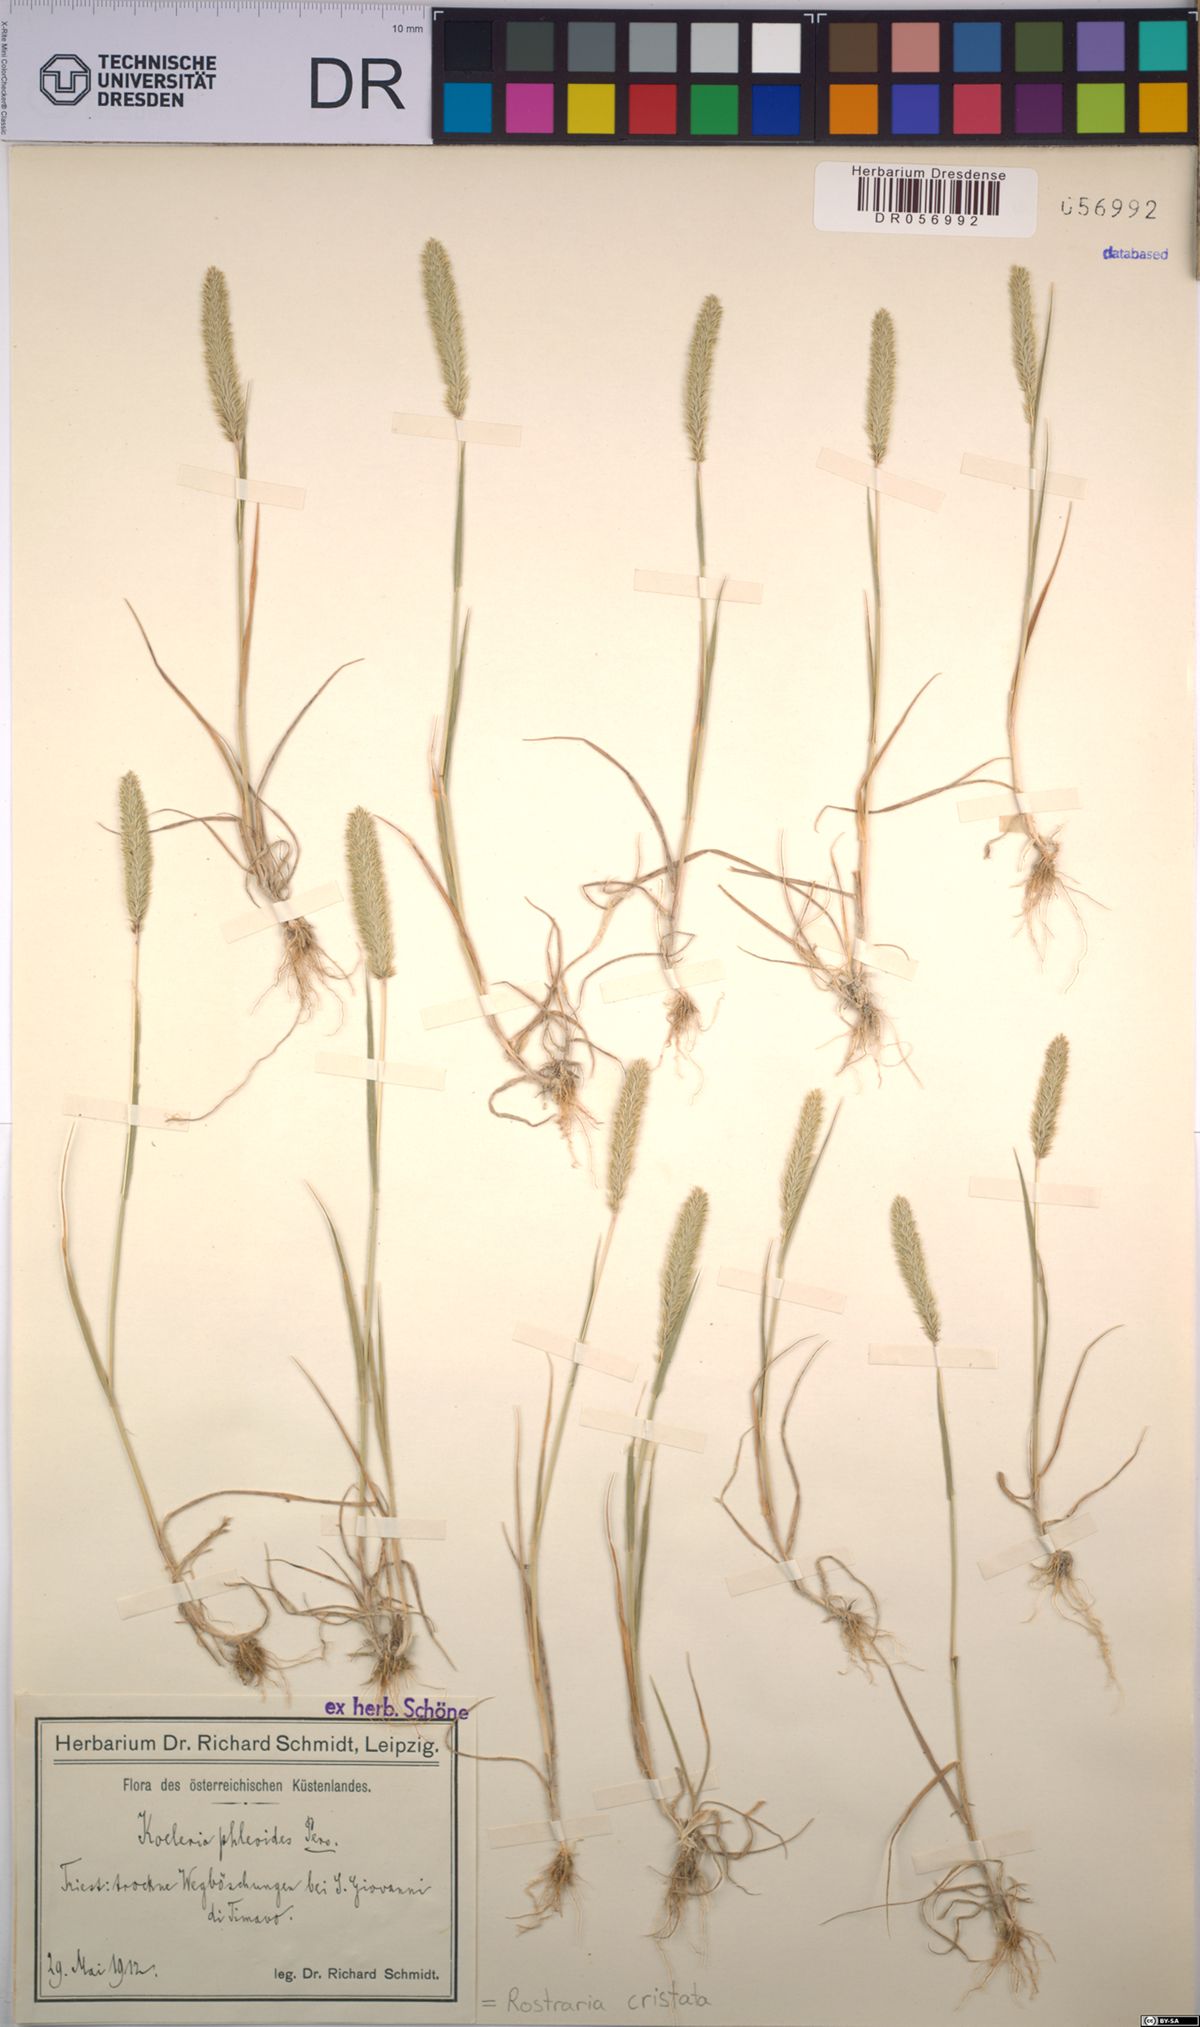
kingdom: Plantae
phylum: Tracheophyta
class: Liliopsida
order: Poales
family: Poaceae
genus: Rostraria
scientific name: Rostraria cristata
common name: Mediterranean hair-grass
